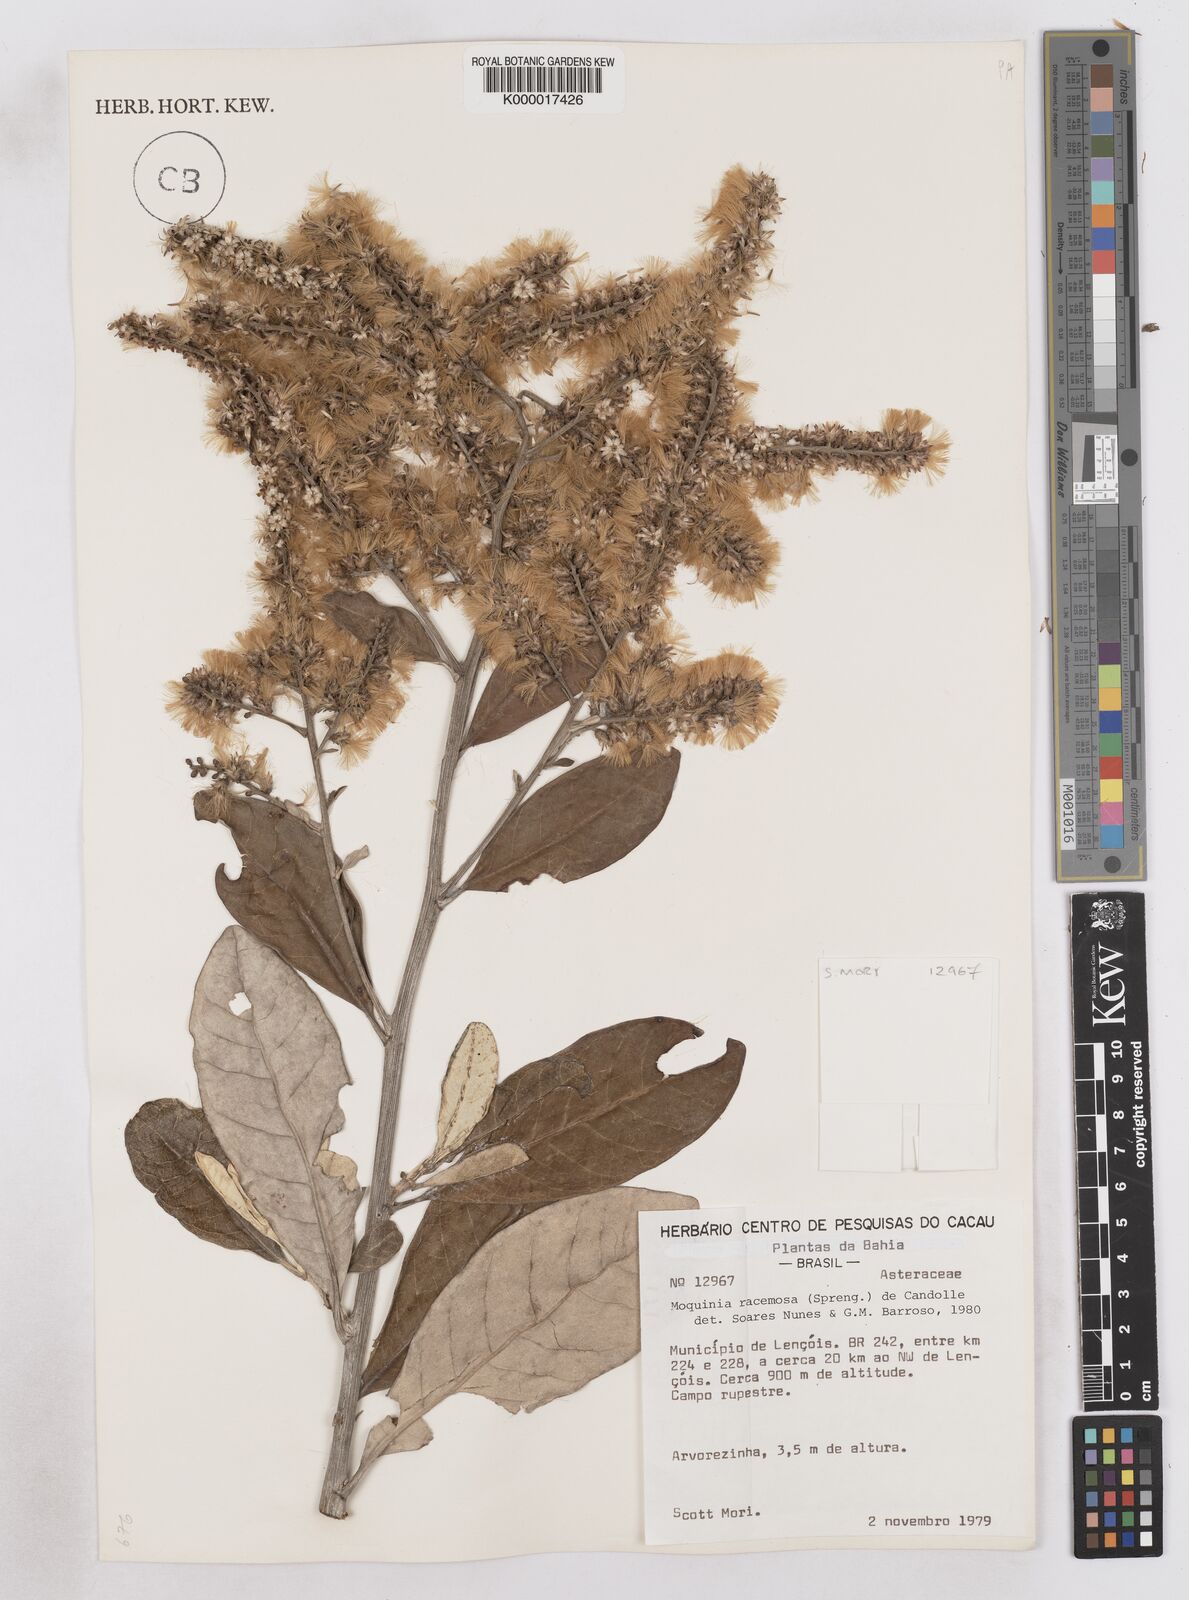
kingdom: Plantae
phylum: Tracheophyta
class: Magnoliopsida
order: Asterales
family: Asteraceae
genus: Moquinia
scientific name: Moquinia racemosa
